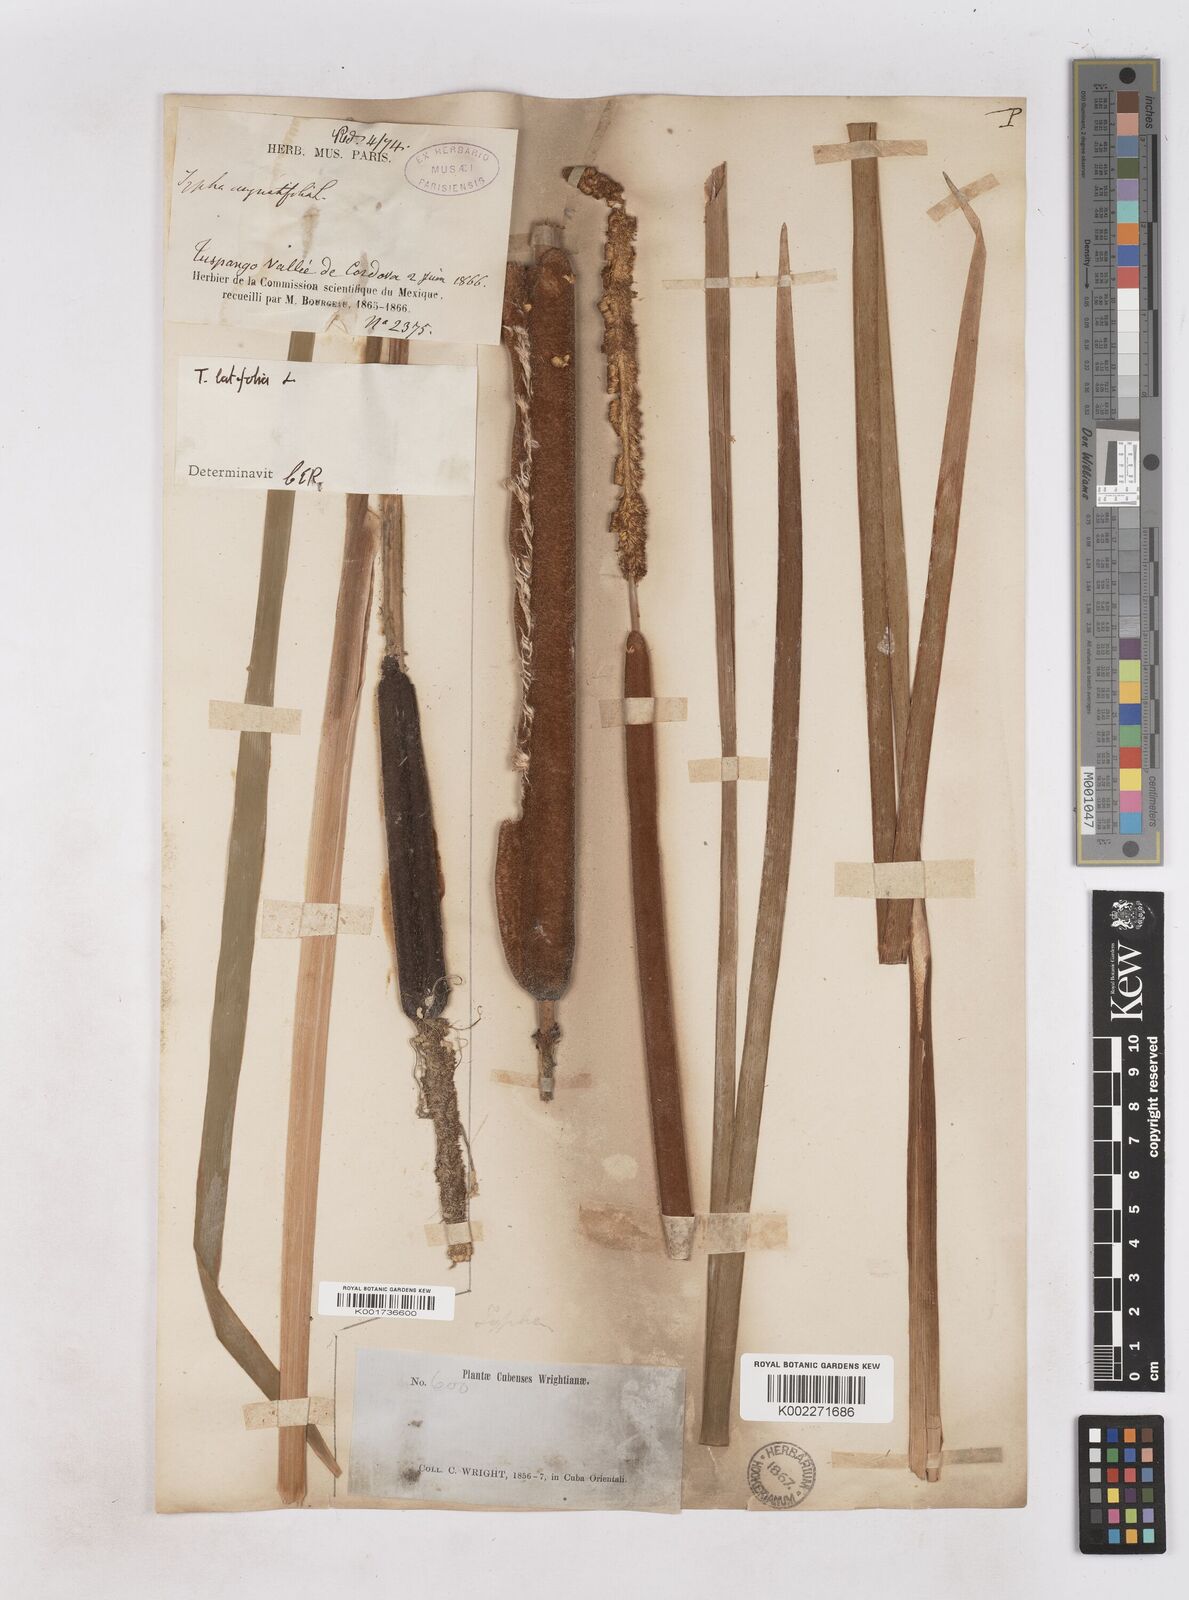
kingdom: Plantae
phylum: Tracheophyta
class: Liliopsida
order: Poales
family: Typhaceae
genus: Typha
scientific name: Typha latifolia
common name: Broadleaf cattail
